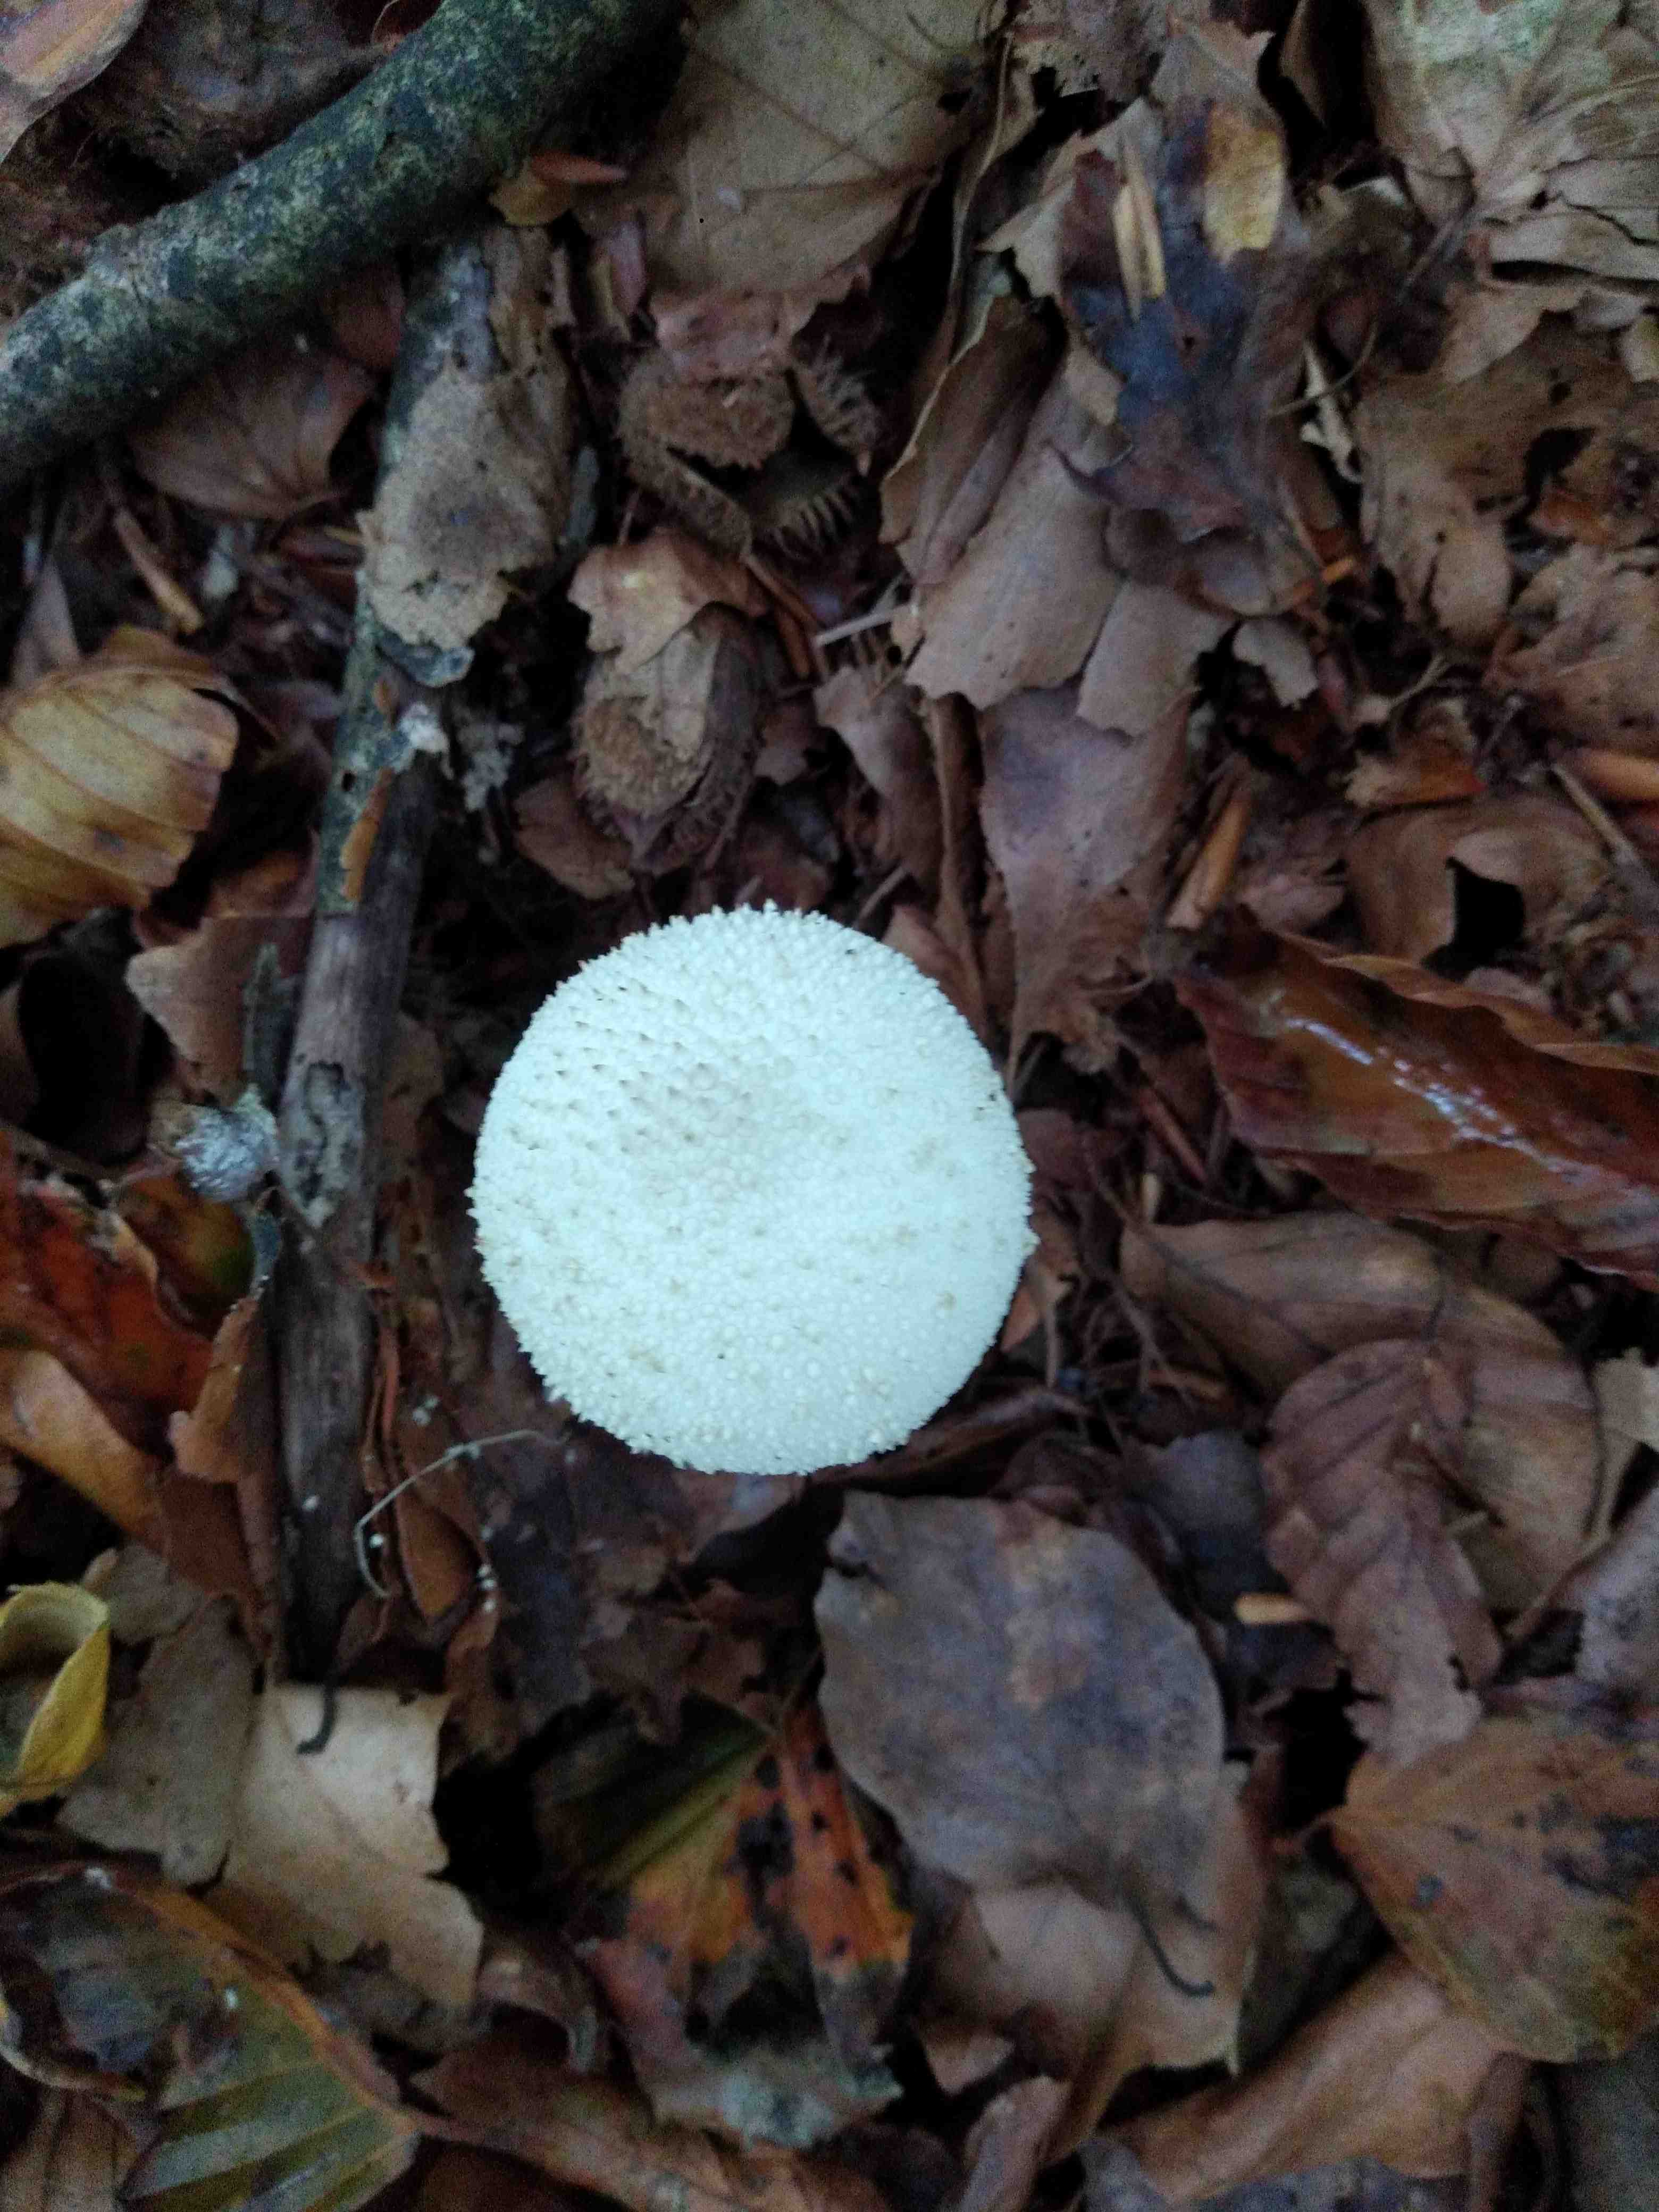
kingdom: Fungi
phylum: Basidiomycota
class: Agaricomycetes
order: Agaricales
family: Lycoperdaceae
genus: Lycoperdon
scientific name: Lycoperdon perlatum
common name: krystal-støvbold
